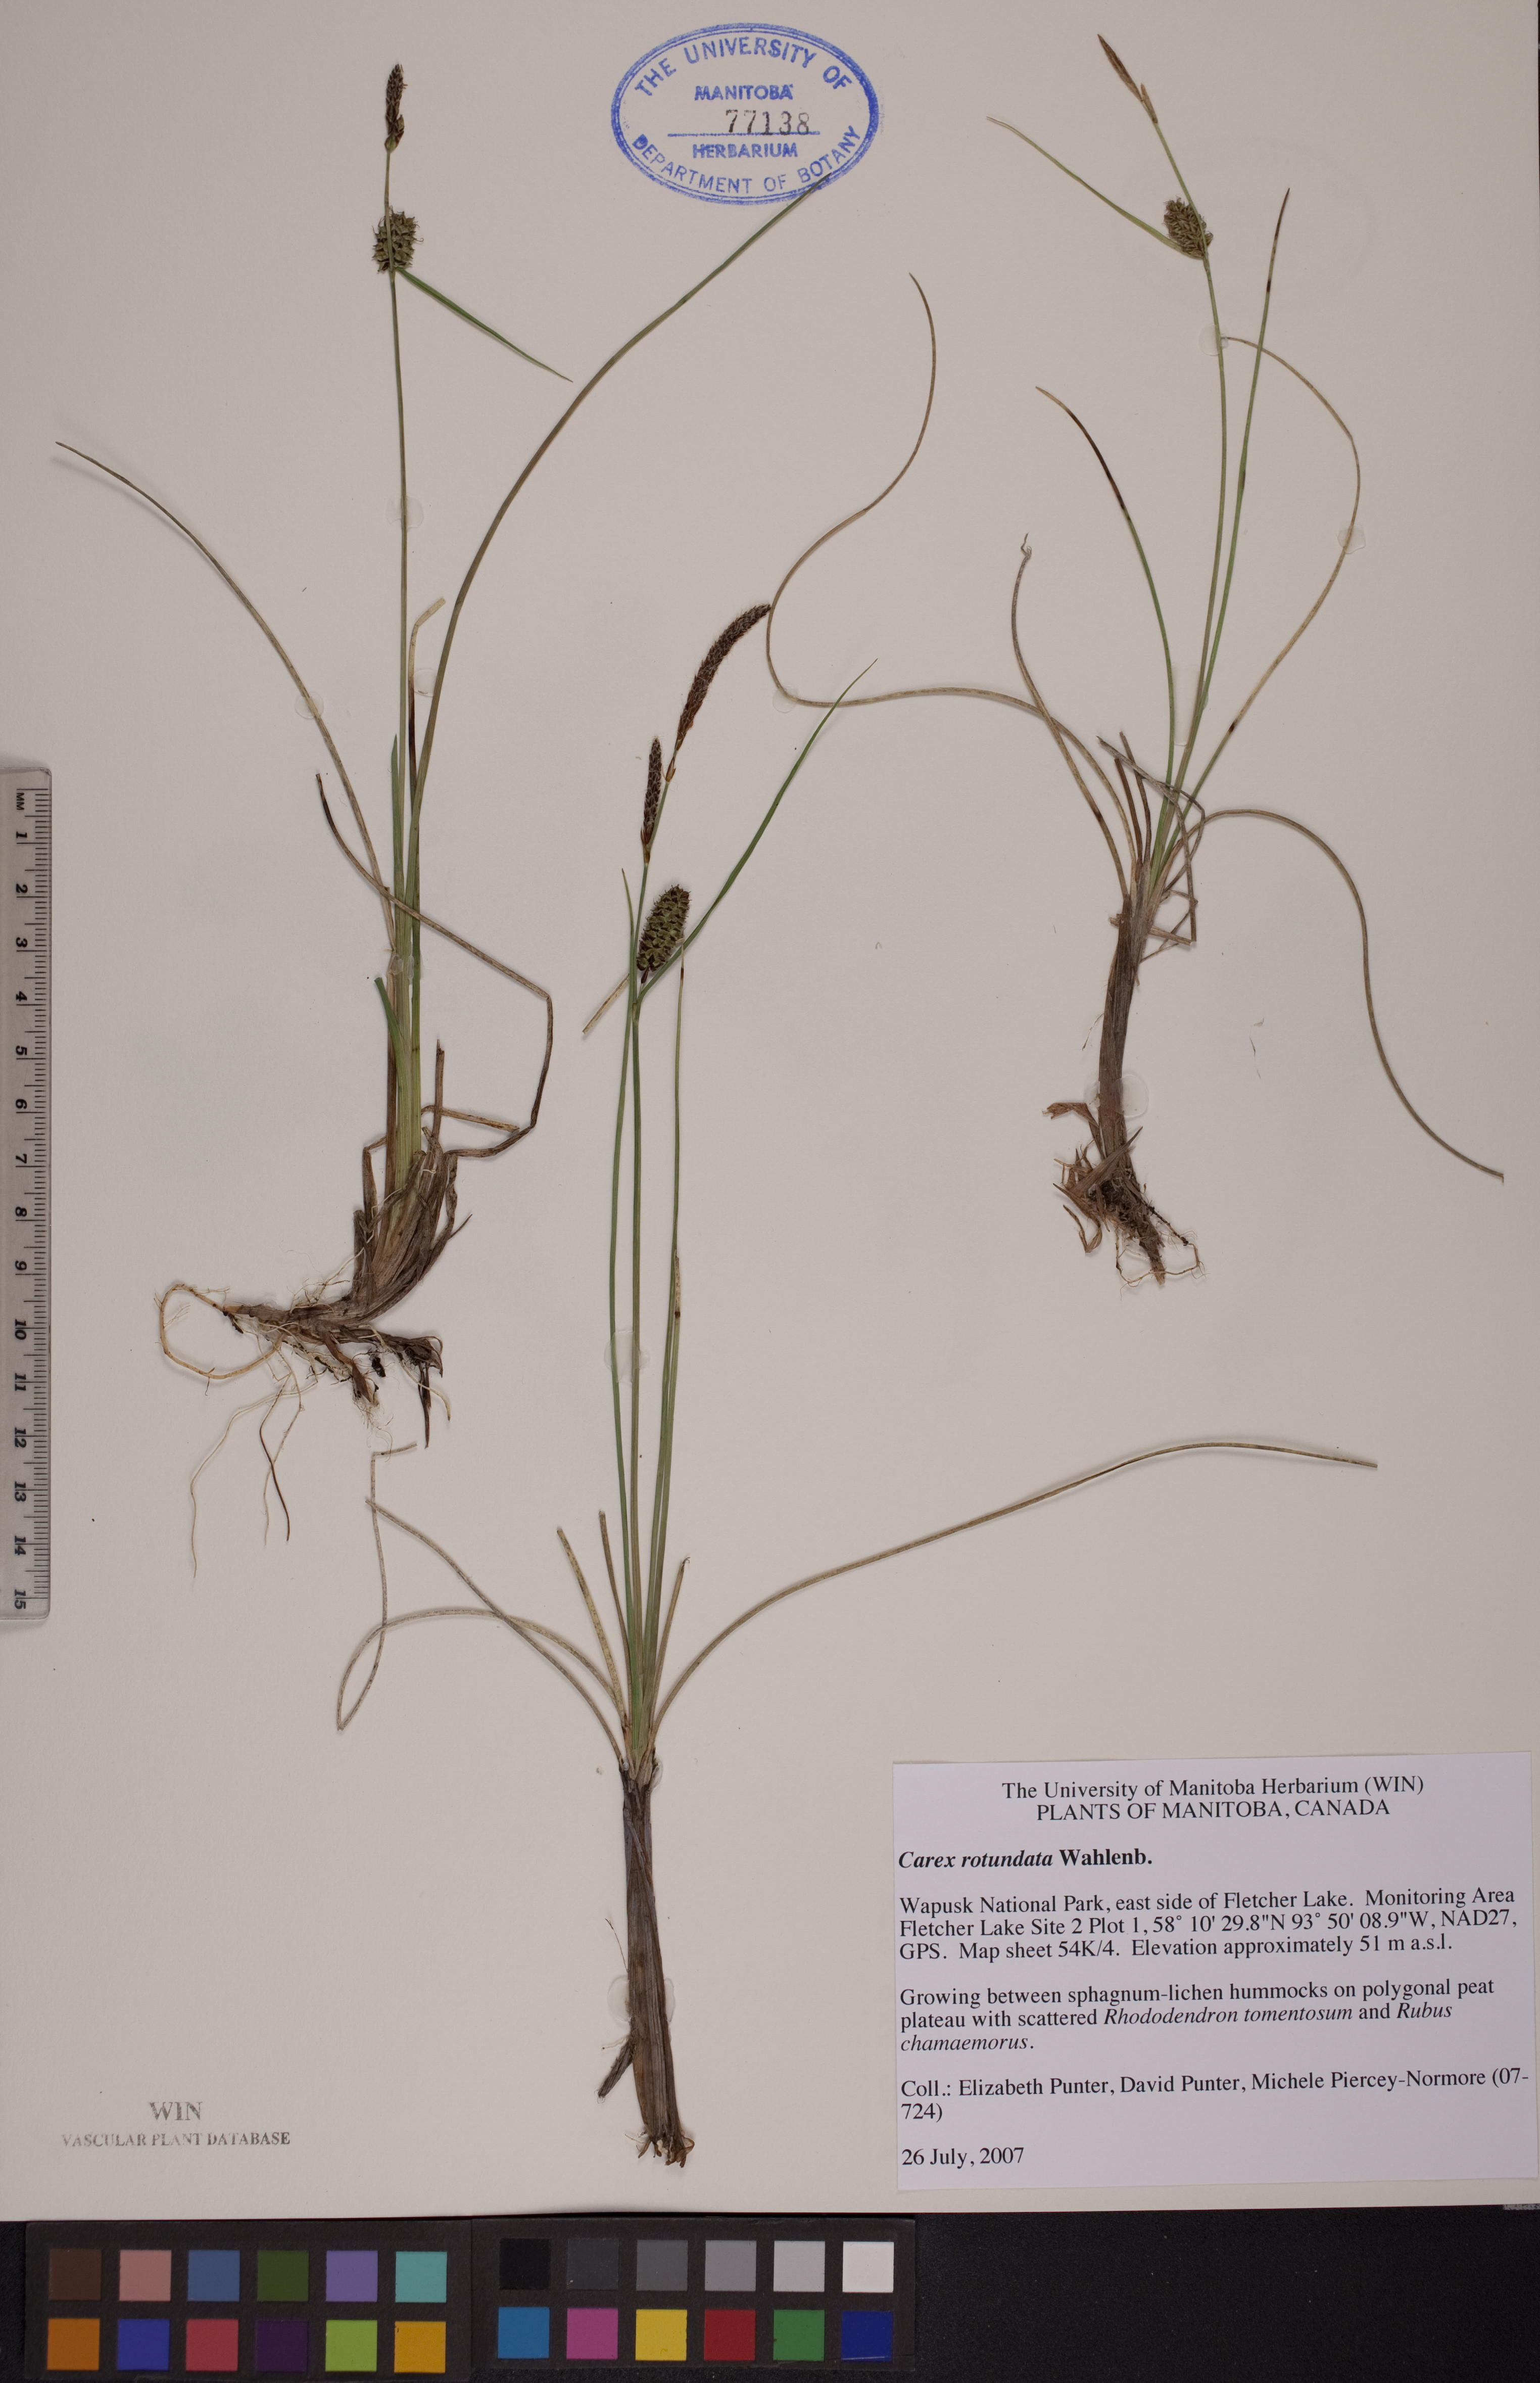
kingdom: Plantae
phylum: Tracheophyta
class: Liliopsida
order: Poales
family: Cyperaceae
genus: Carex
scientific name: Carex rotundata
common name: Round-fruited sedge
